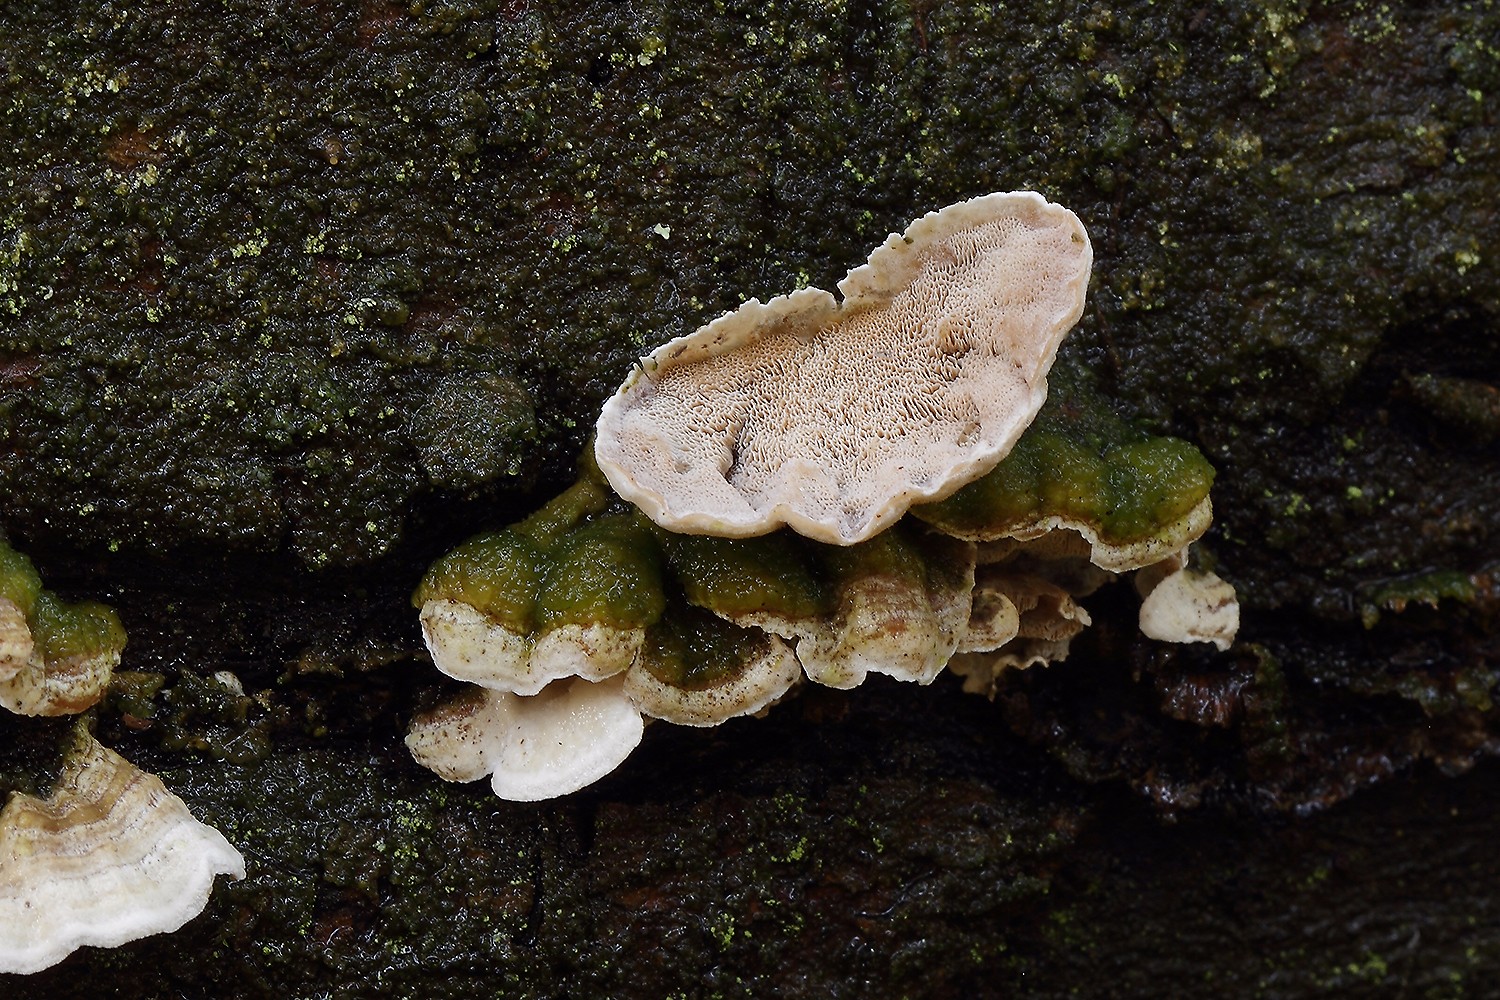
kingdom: Fungi
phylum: Basidiomycota
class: Agaricomycetes
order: Polyporales
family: Incrustoporiaceae
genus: Skeletocutis
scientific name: Skeletocutis carneogrisea
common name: rødgrå krystalporesvamp
